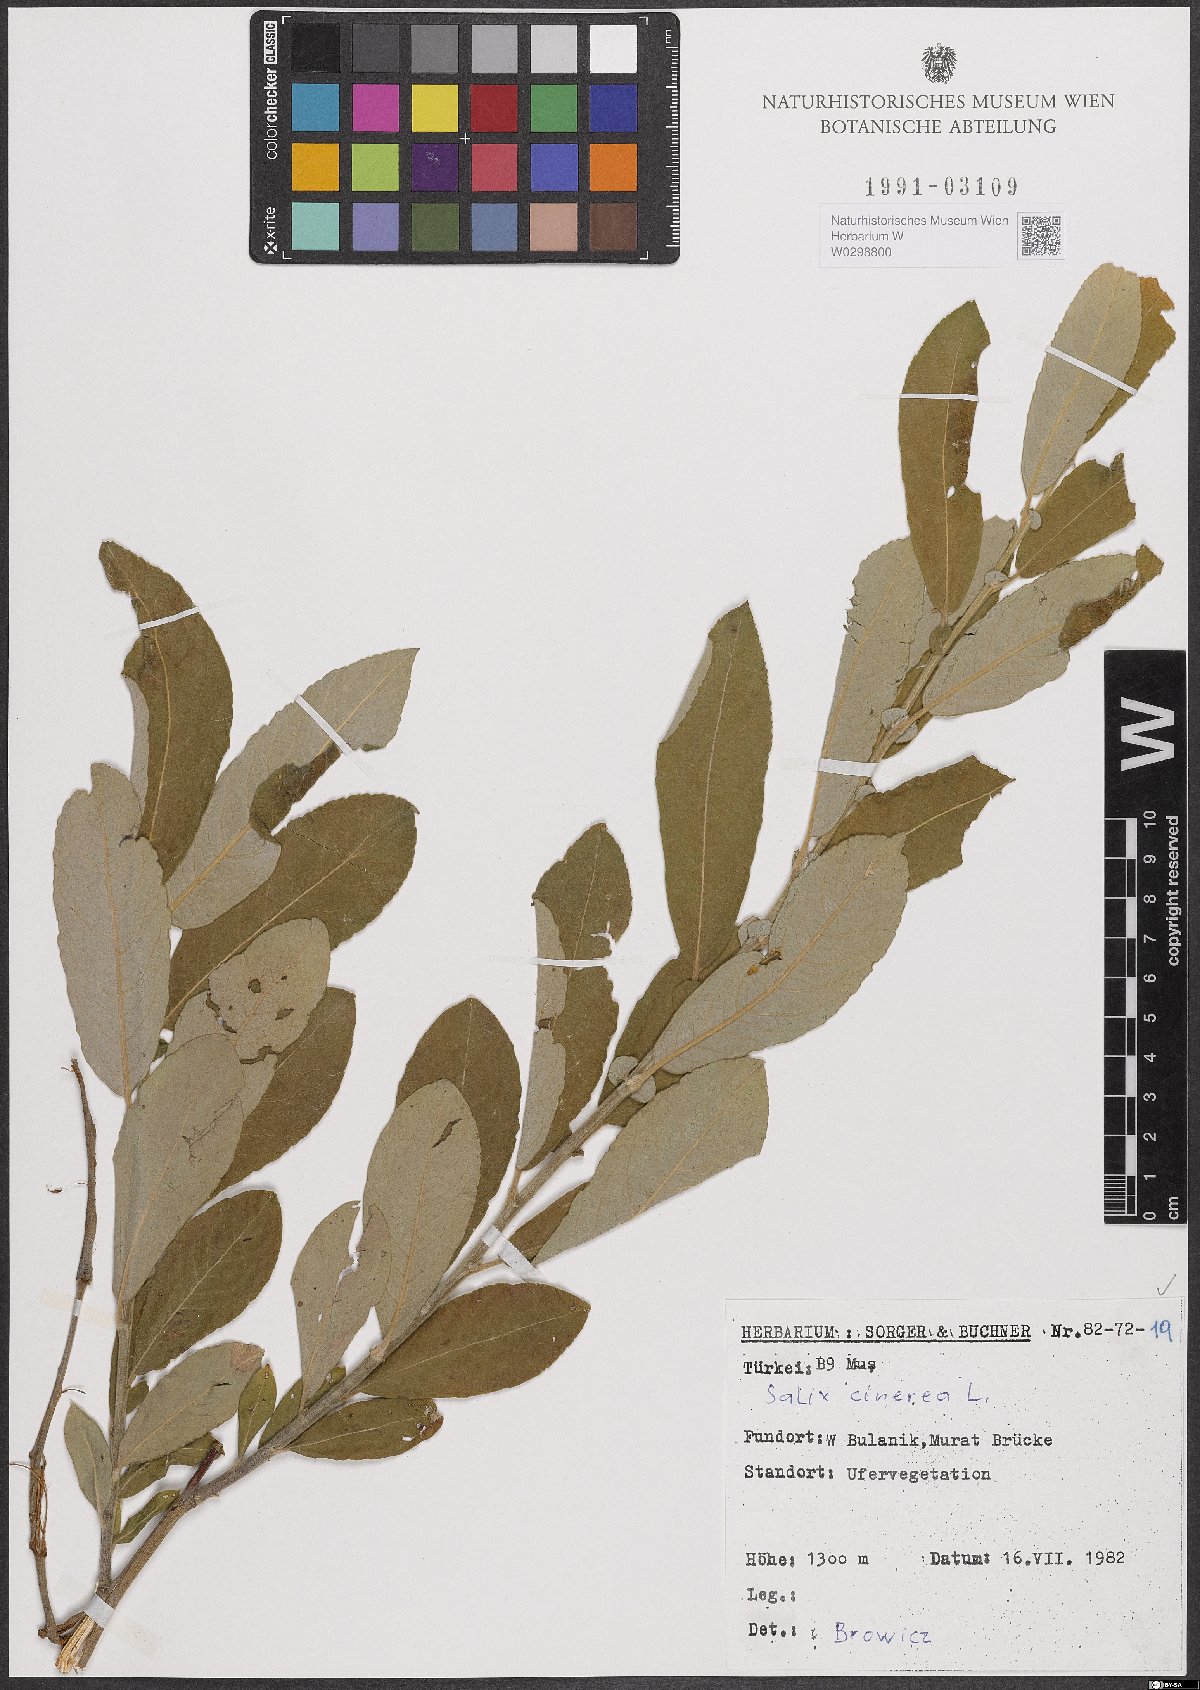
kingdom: Plantae
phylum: Tracheophyta
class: Magnoliopsida
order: Malpighiales
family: Salicaceae
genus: Salix
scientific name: Salix cinerea
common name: Common sallow
